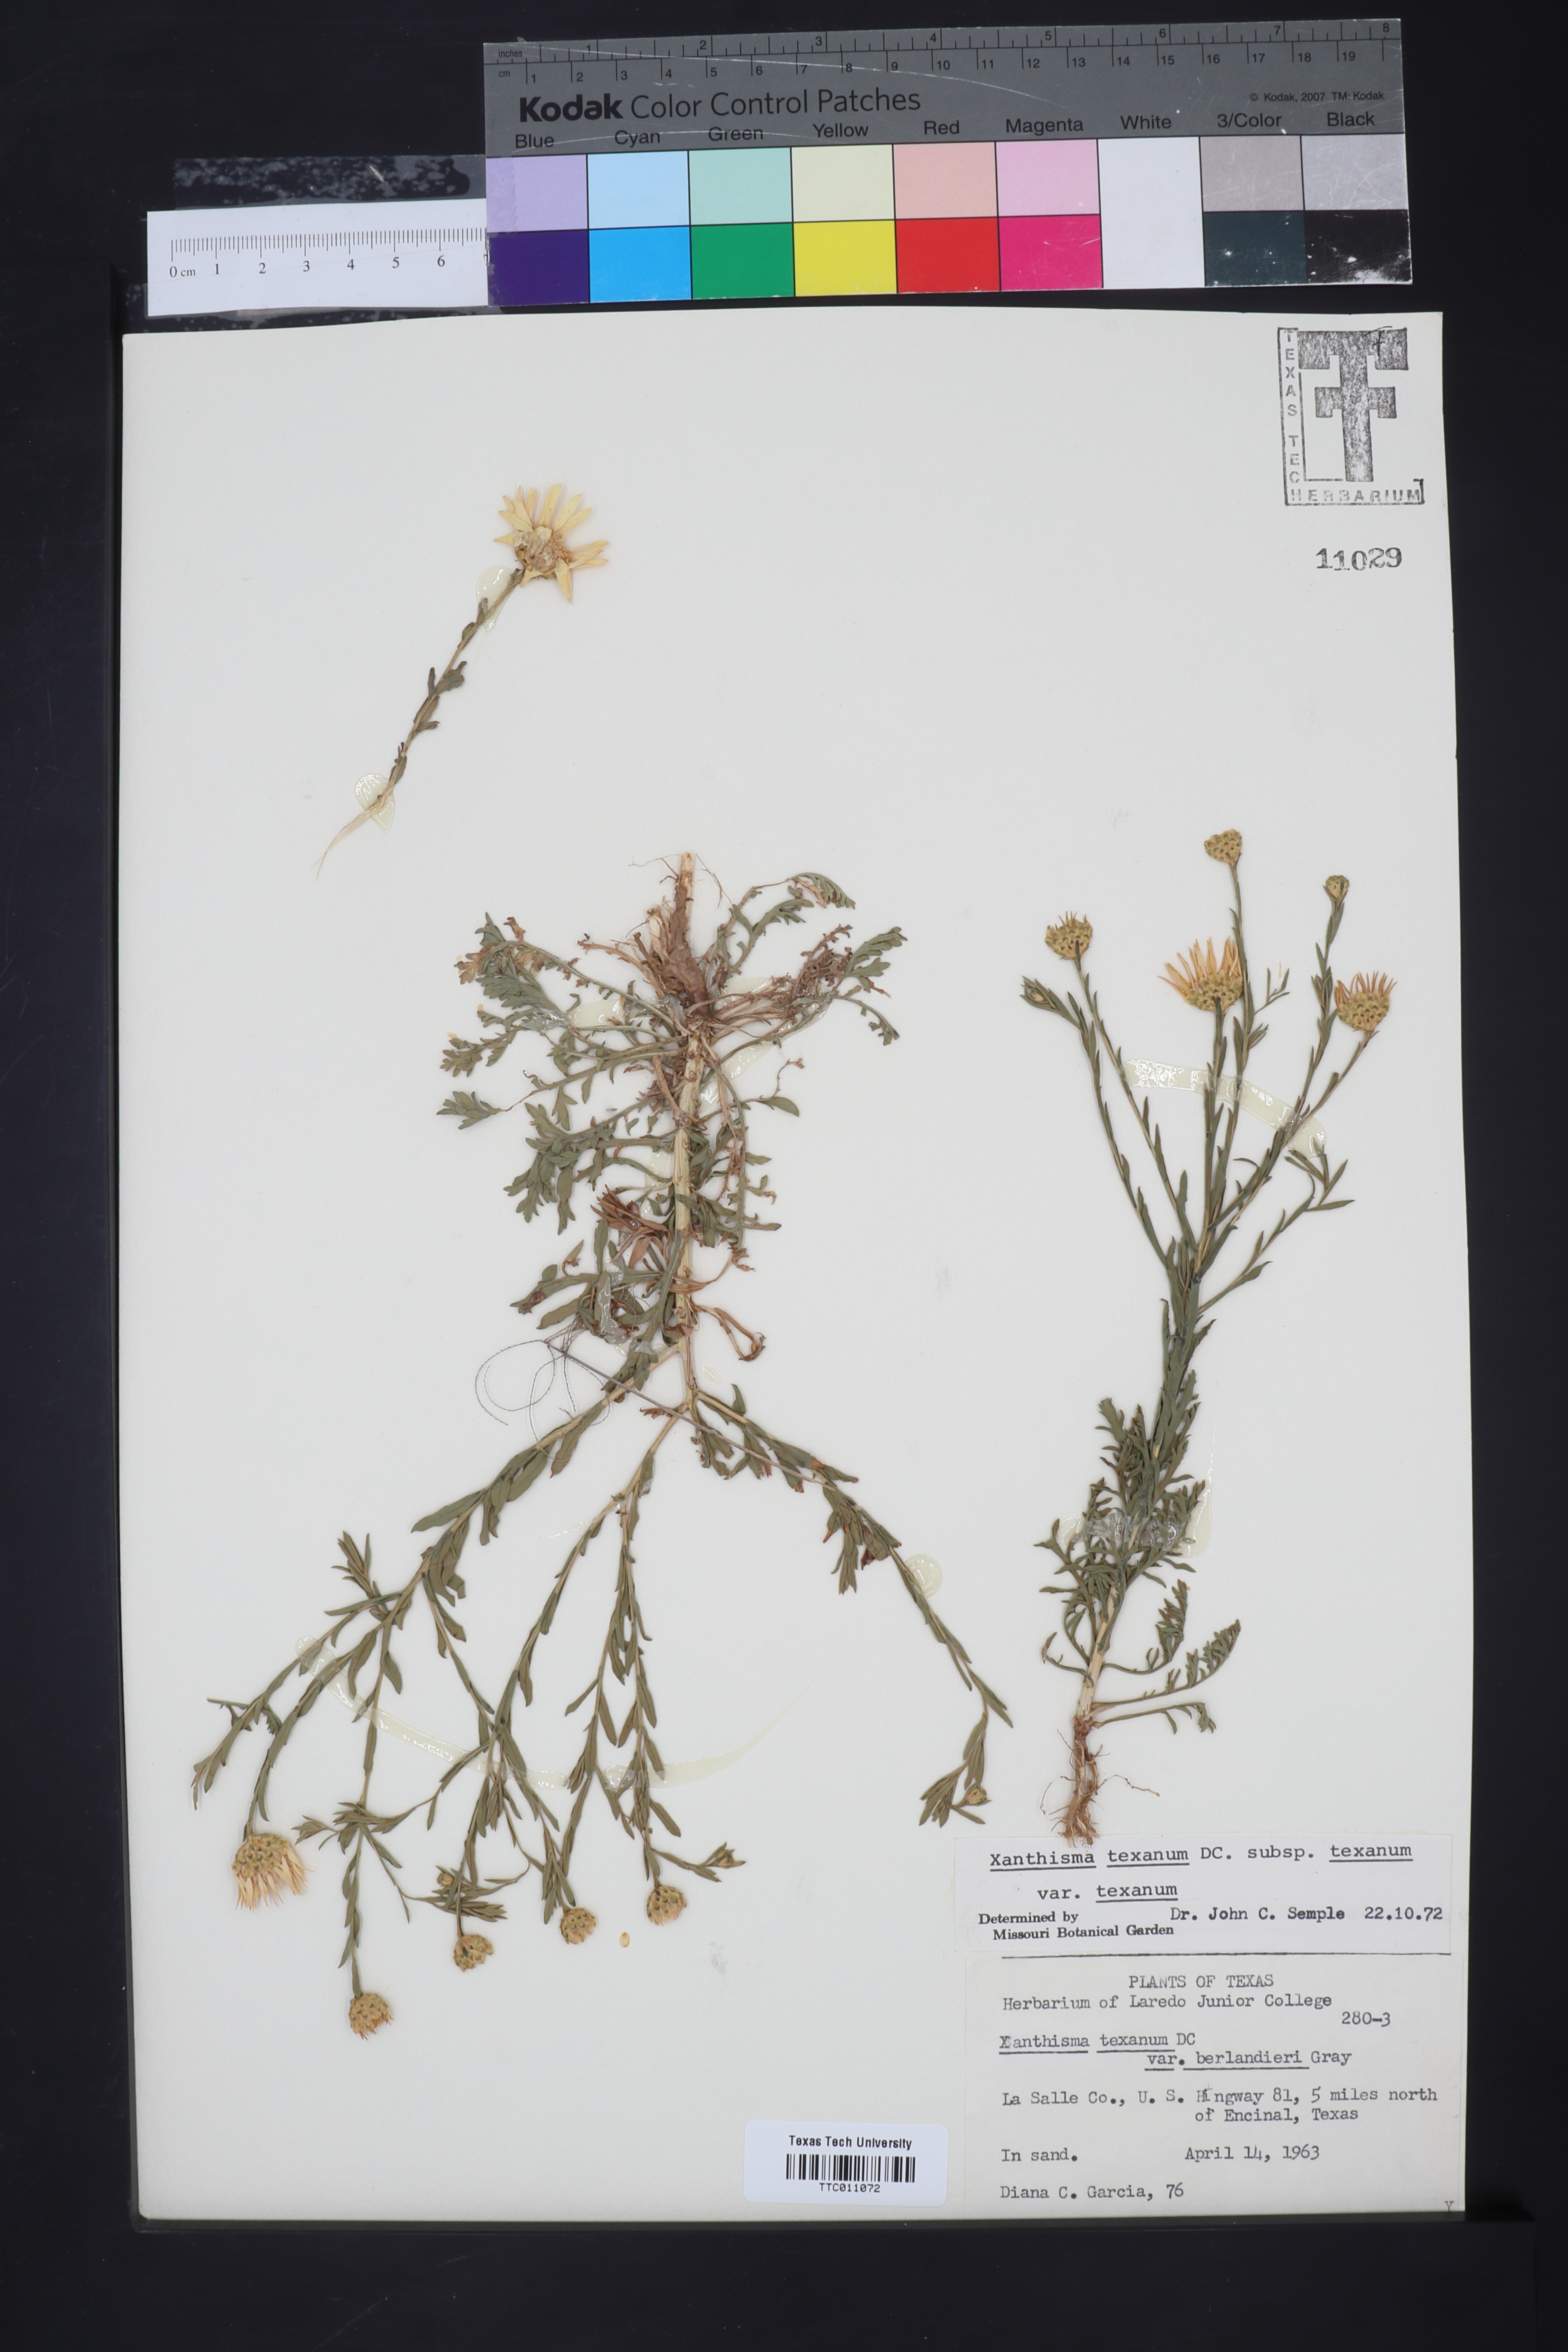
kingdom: Plantae
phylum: Tracheophyta
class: Magnoliopsida
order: Asterales
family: Asteraceae
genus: Xanthisma
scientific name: Xanthisma texanum
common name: Texas sleepy daisy
